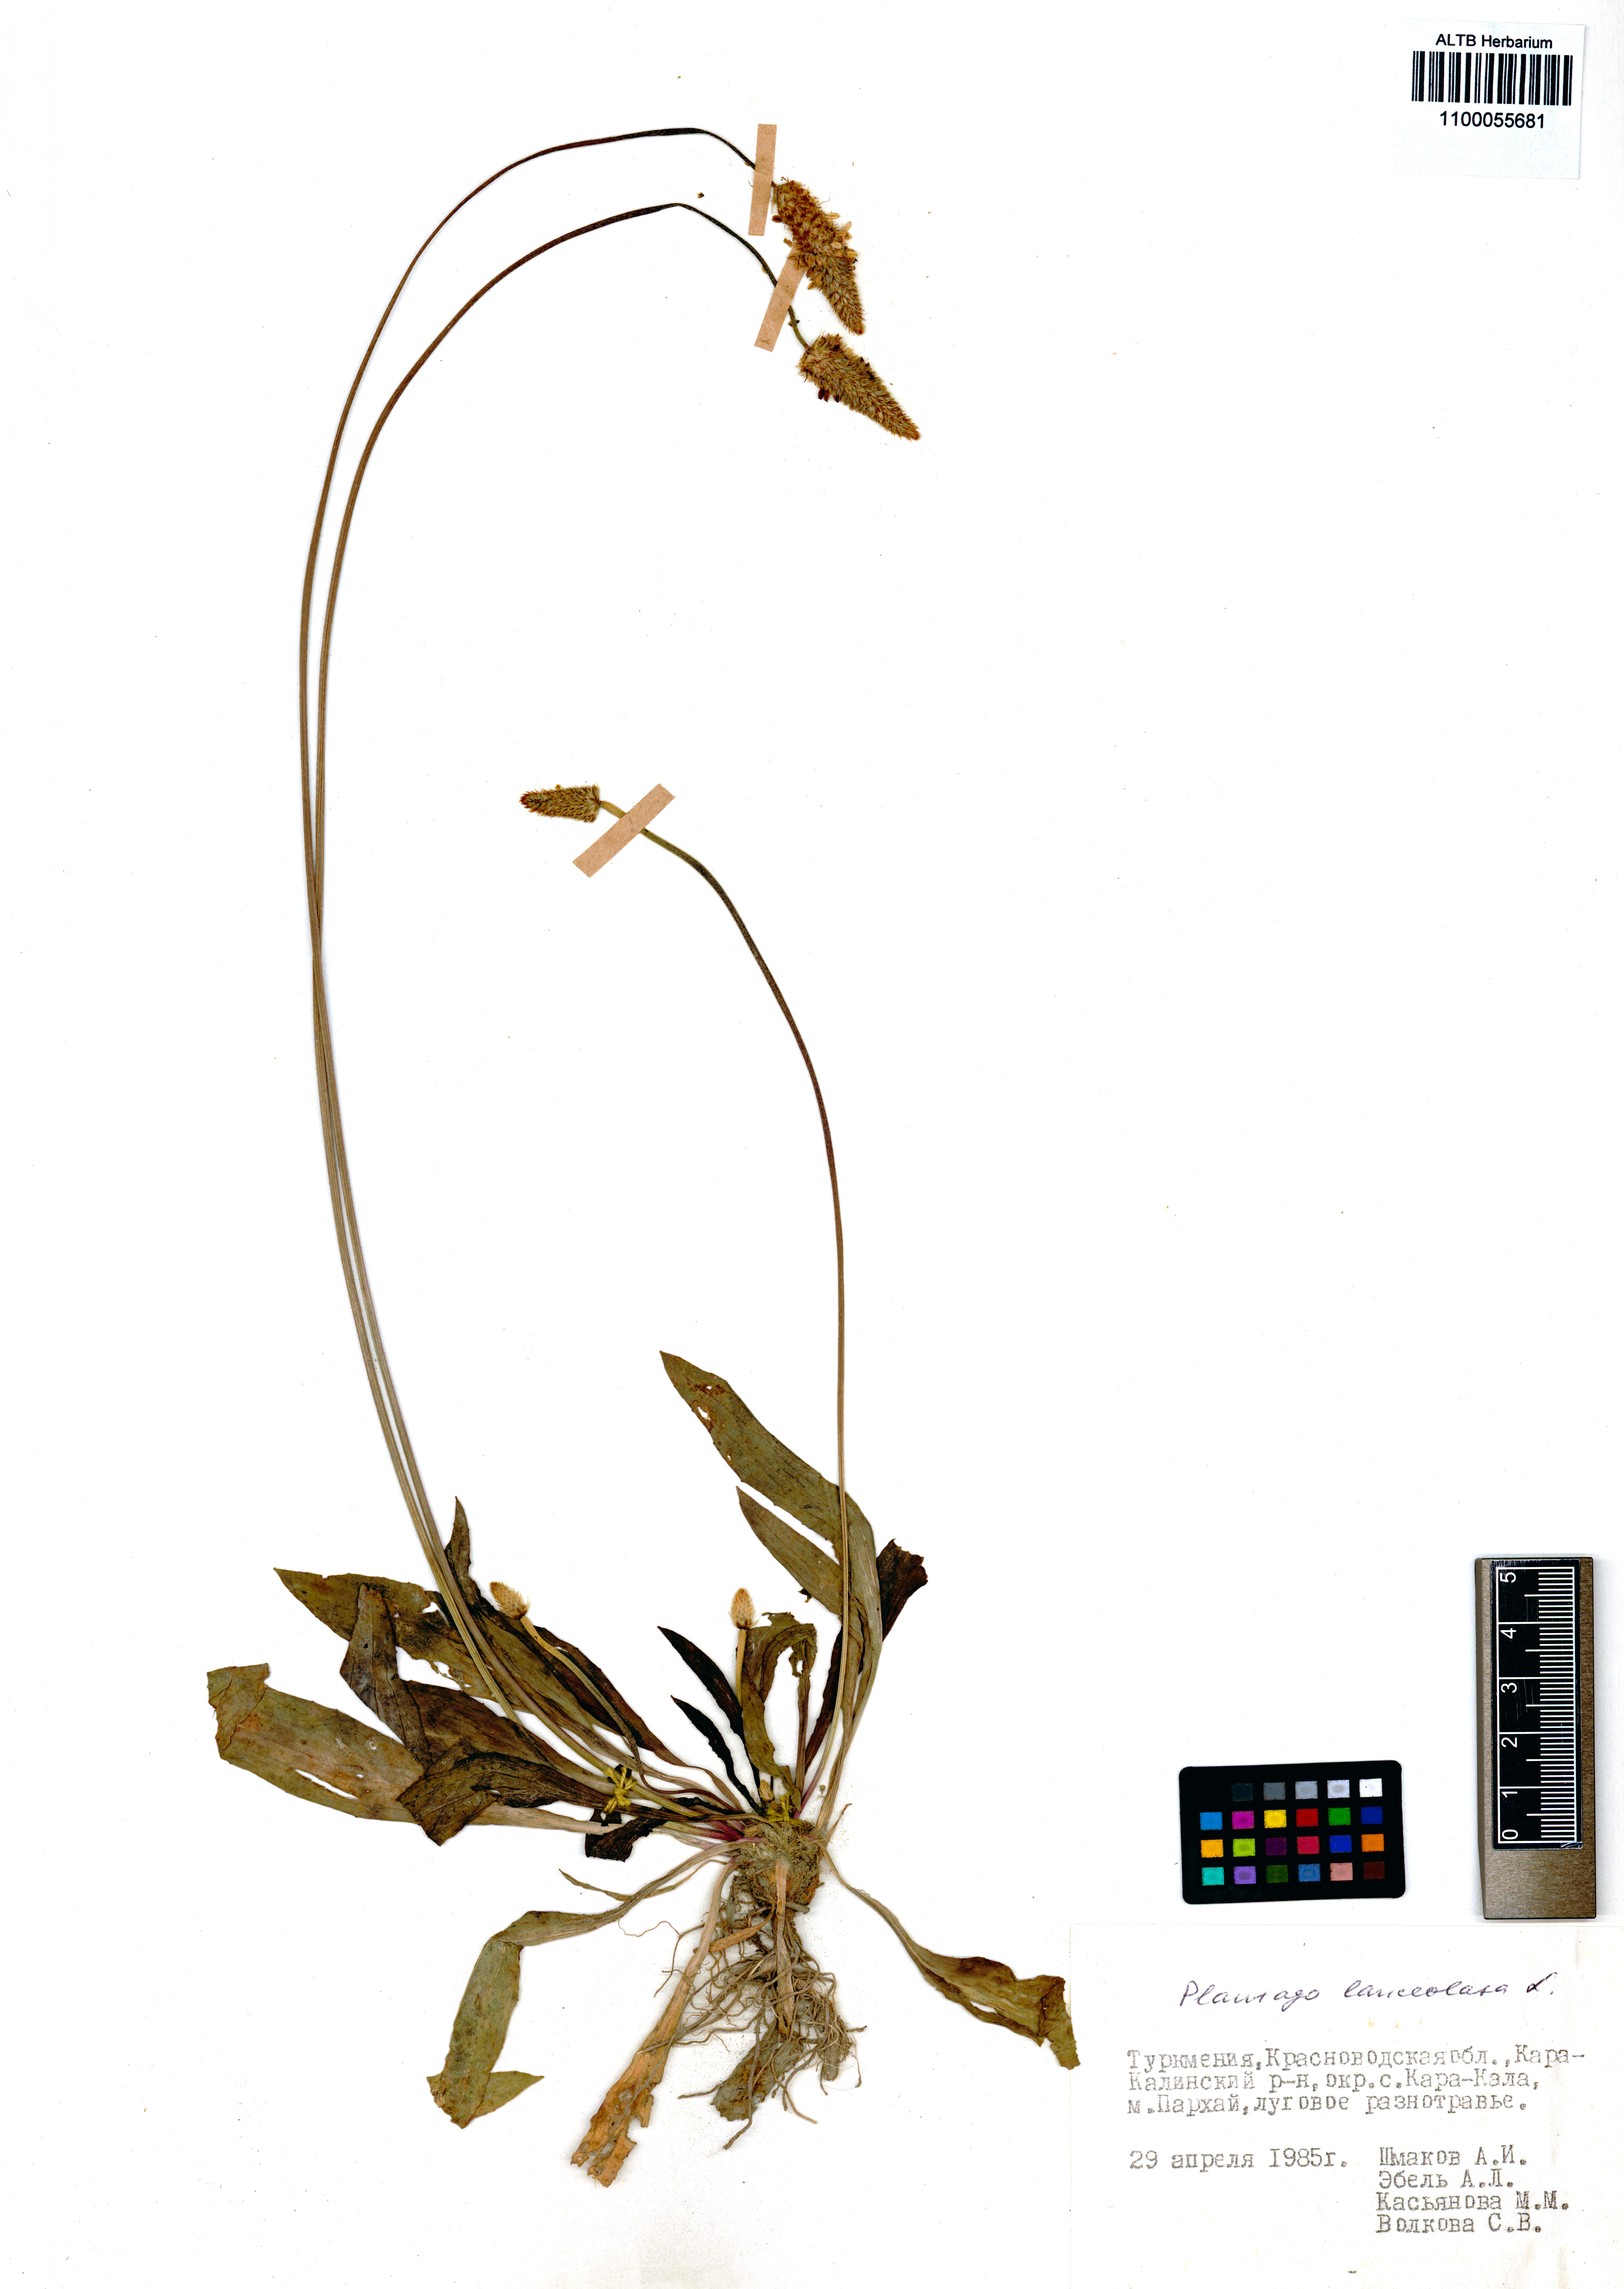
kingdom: Plantae
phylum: Tracheophyta
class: Magnoliopsida
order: Lamiales
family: Plantaginaceae
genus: Plantago
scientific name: Plantago lanceolata
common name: Ribwort plantain
